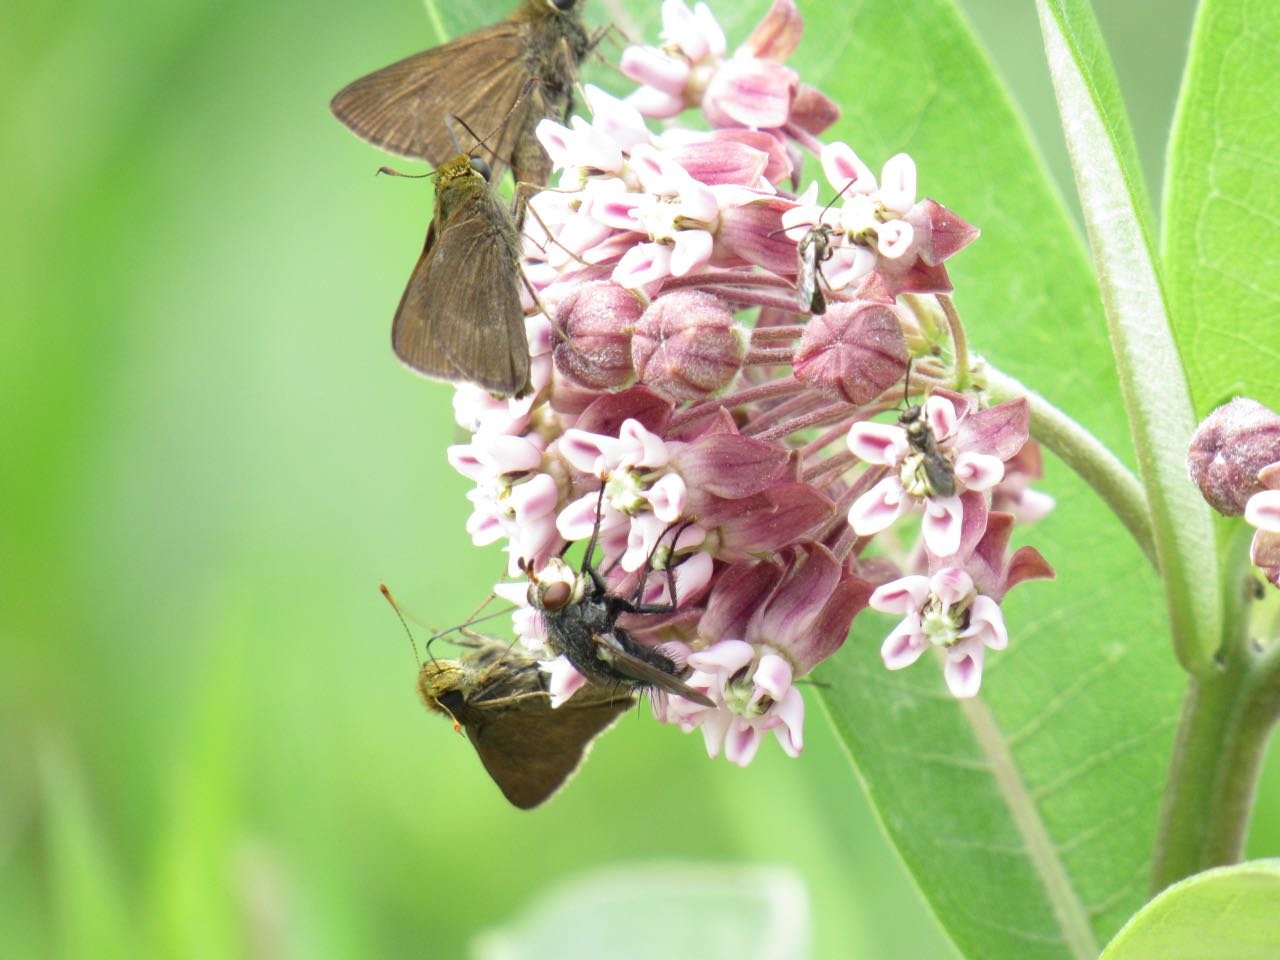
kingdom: Animalia
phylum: Arthropoda
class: Insecta
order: Lepidoptera
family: Hesperiidae
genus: Euphyes
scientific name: Euphyes vestris
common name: Dun Skipper
